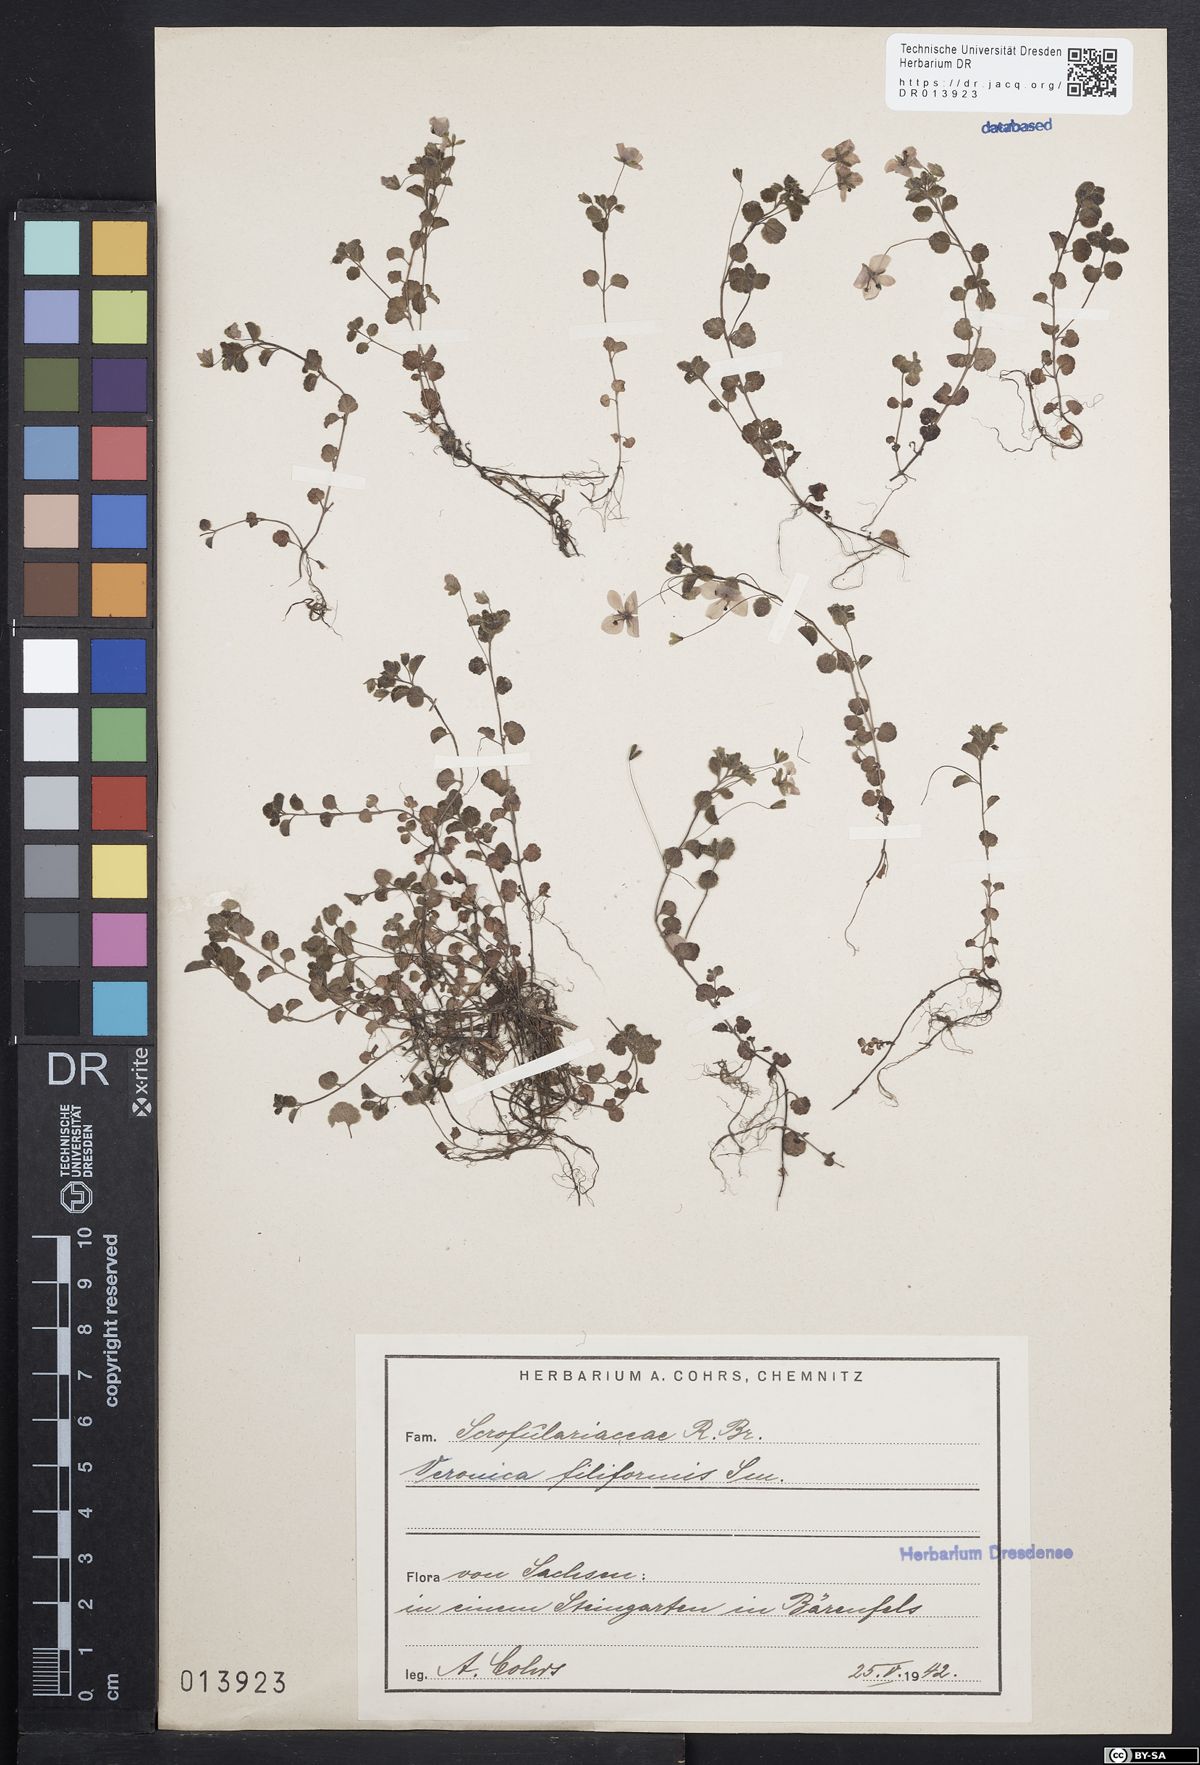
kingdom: Plantae
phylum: Tracheophyta
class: Magnoliopsida
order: Lamiales
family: Plantaginaceae
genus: Veronica
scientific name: Veronica filiformis
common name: Slender speedwell
